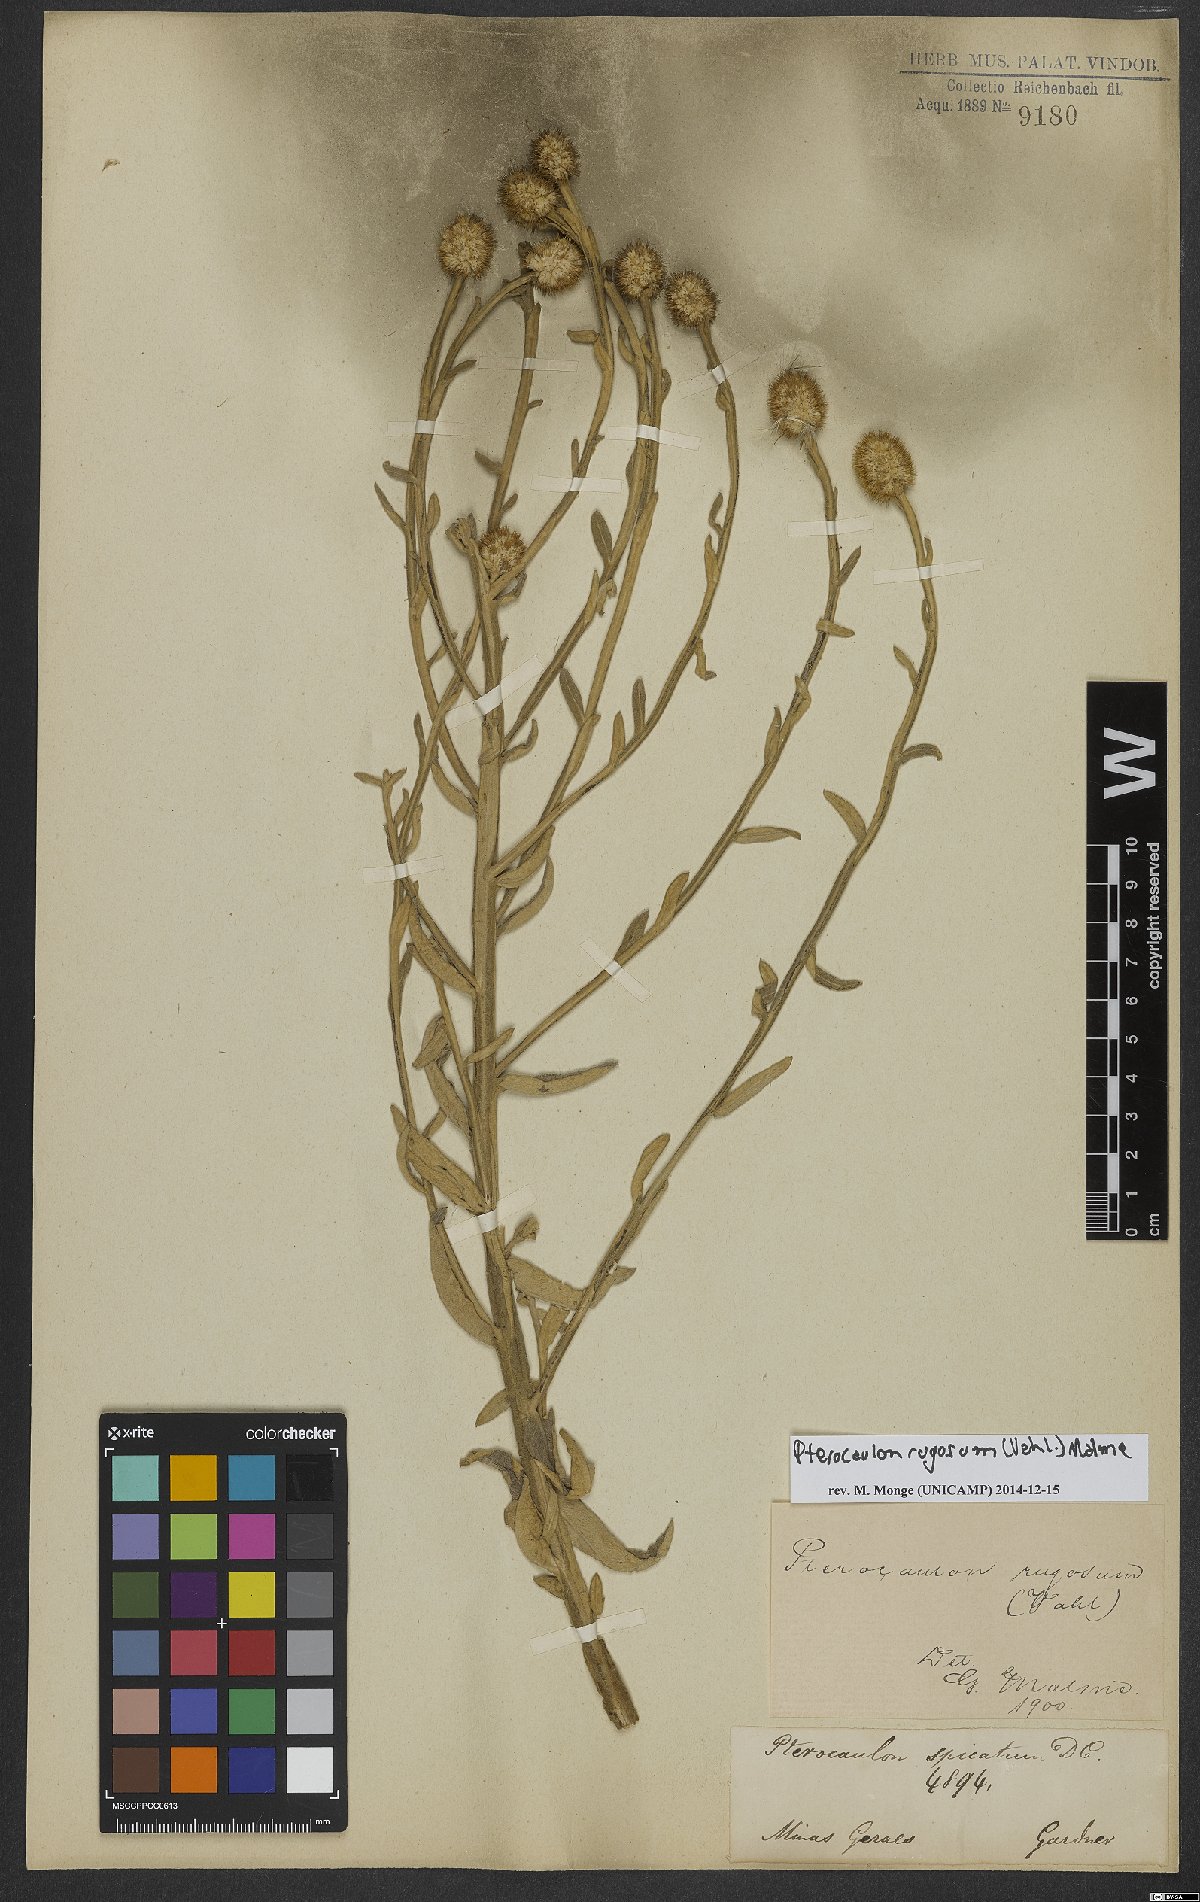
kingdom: Plantae
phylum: Tracheophyta
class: Magnoliopsida
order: Asterales
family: Asteraceae
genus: Pterocaulon
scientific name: Pterocaulon rugosum
